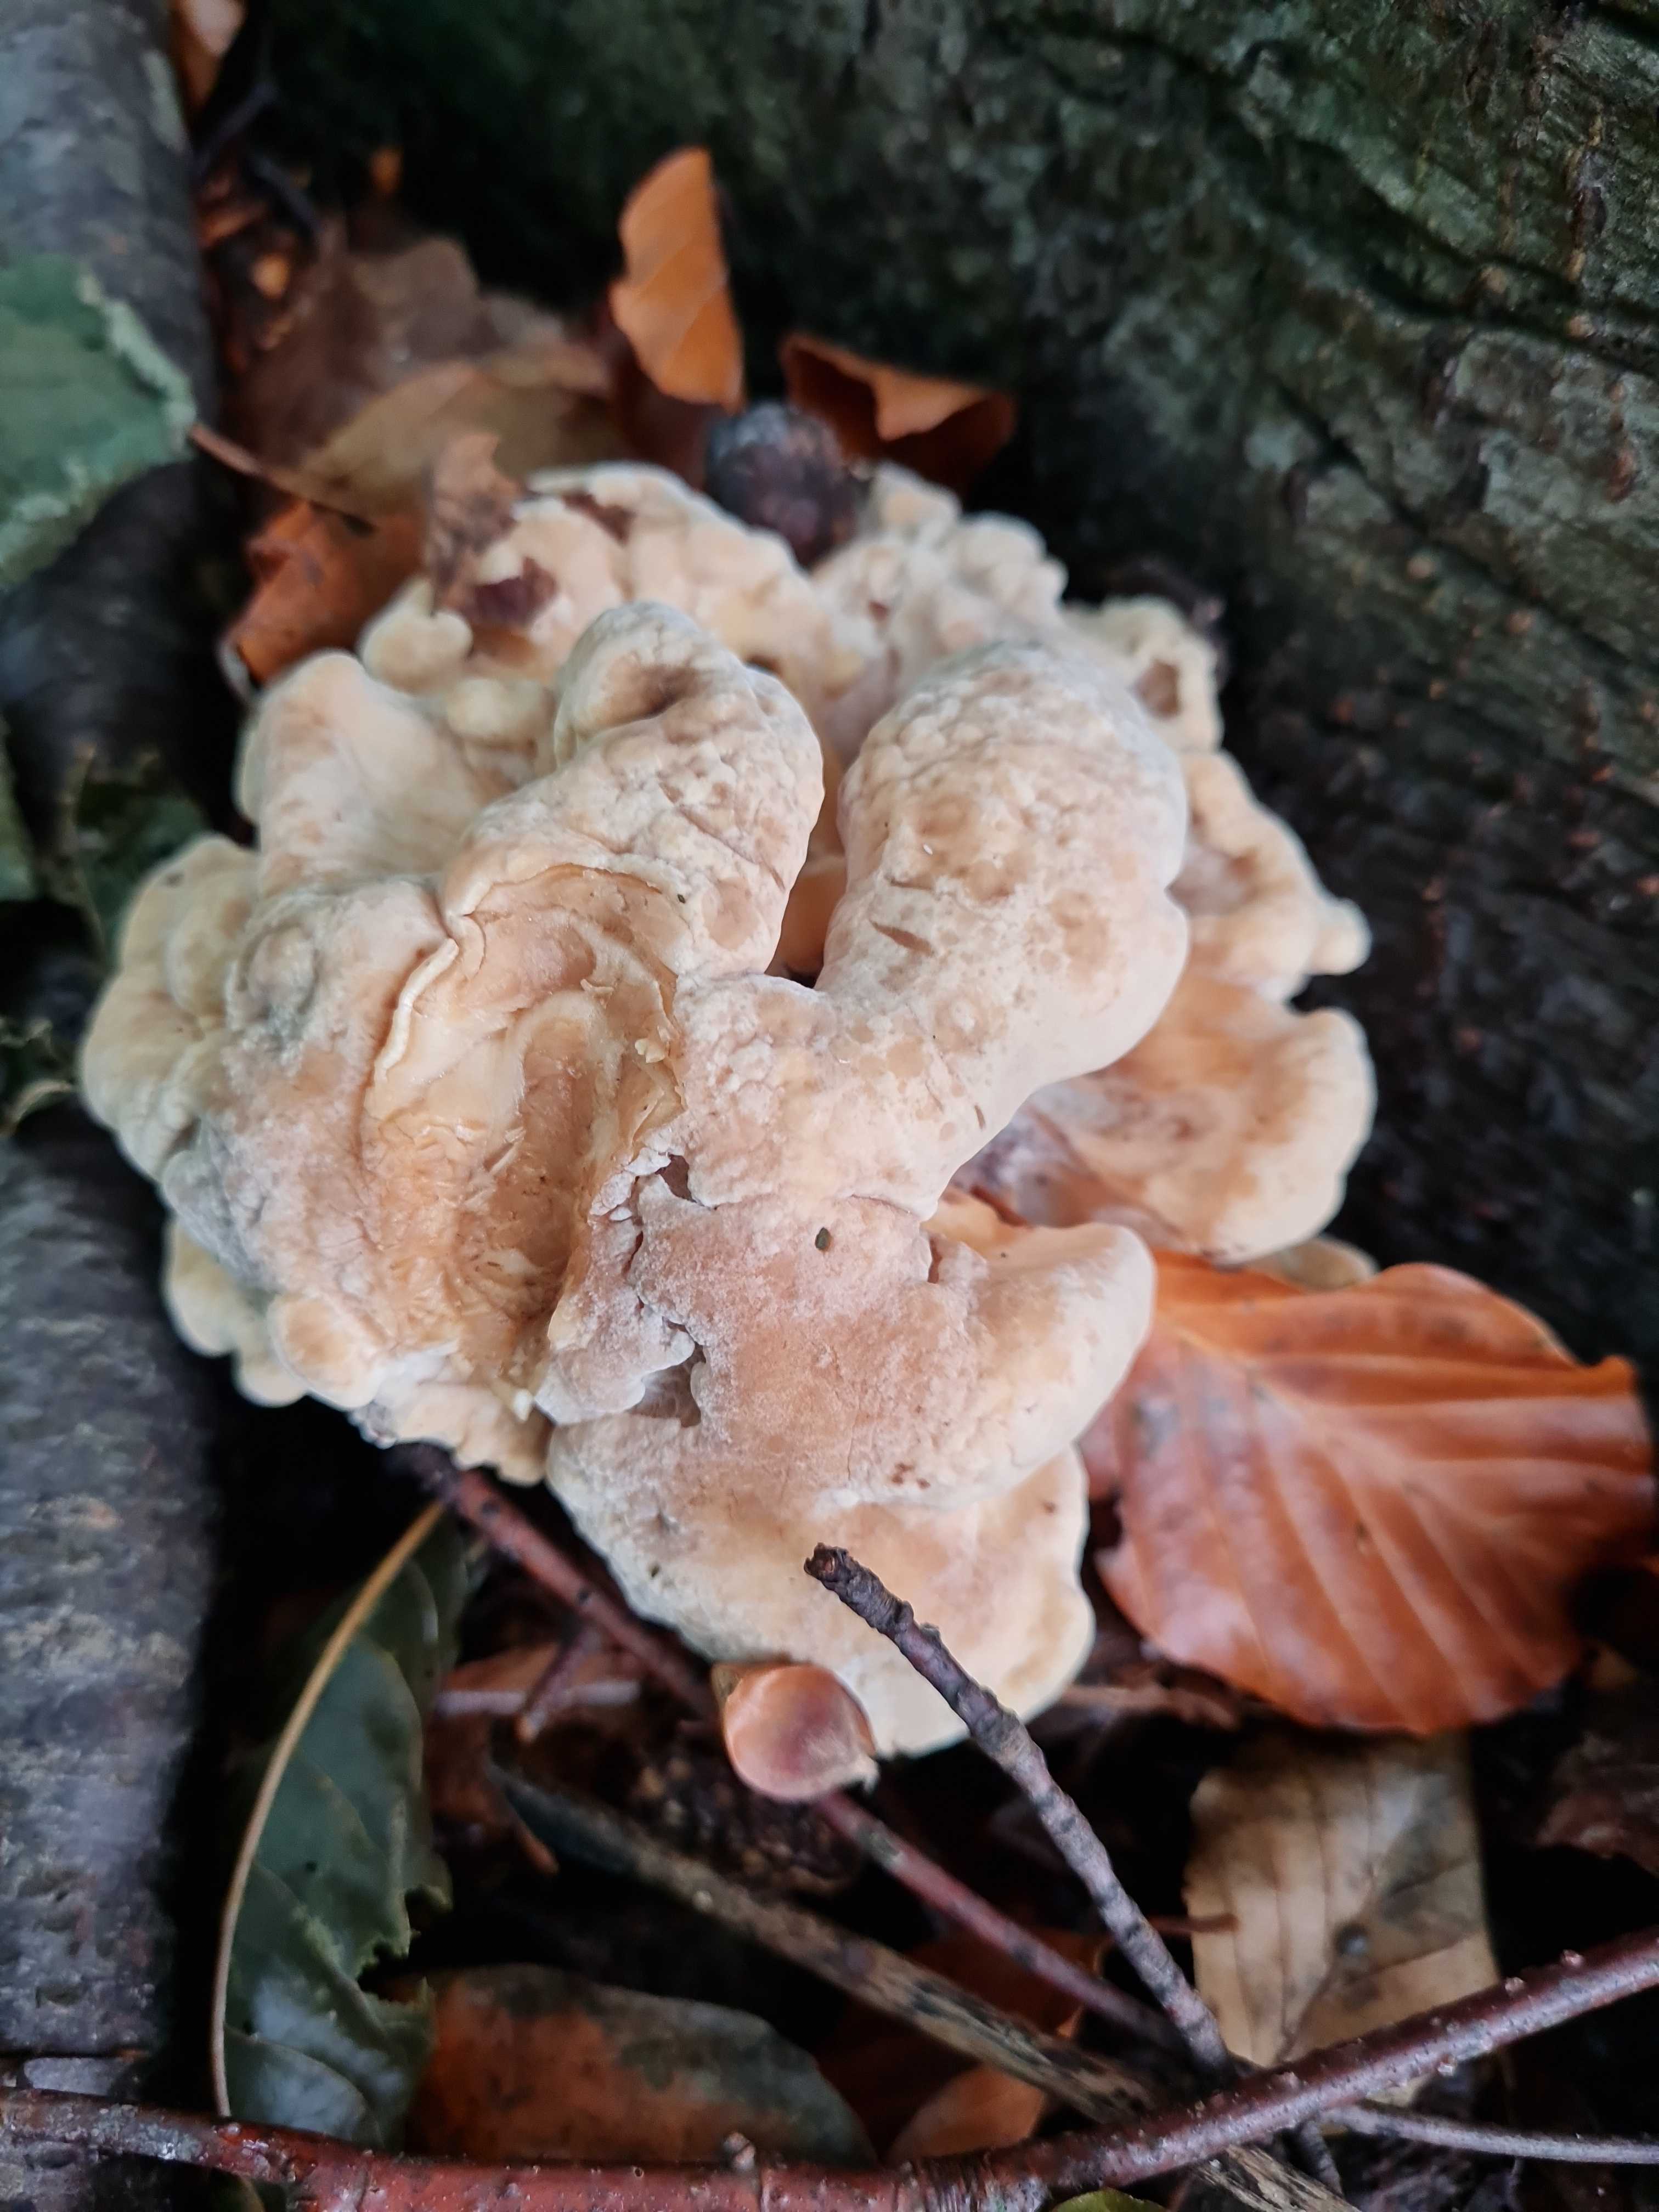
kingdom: Fungi
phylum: Basidiomycota
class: Agaricomycetes
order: Polyporales
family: Meripilaceae
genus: Meripilus
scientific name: Meripilus giganteus
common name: kæmpeporesvamp
